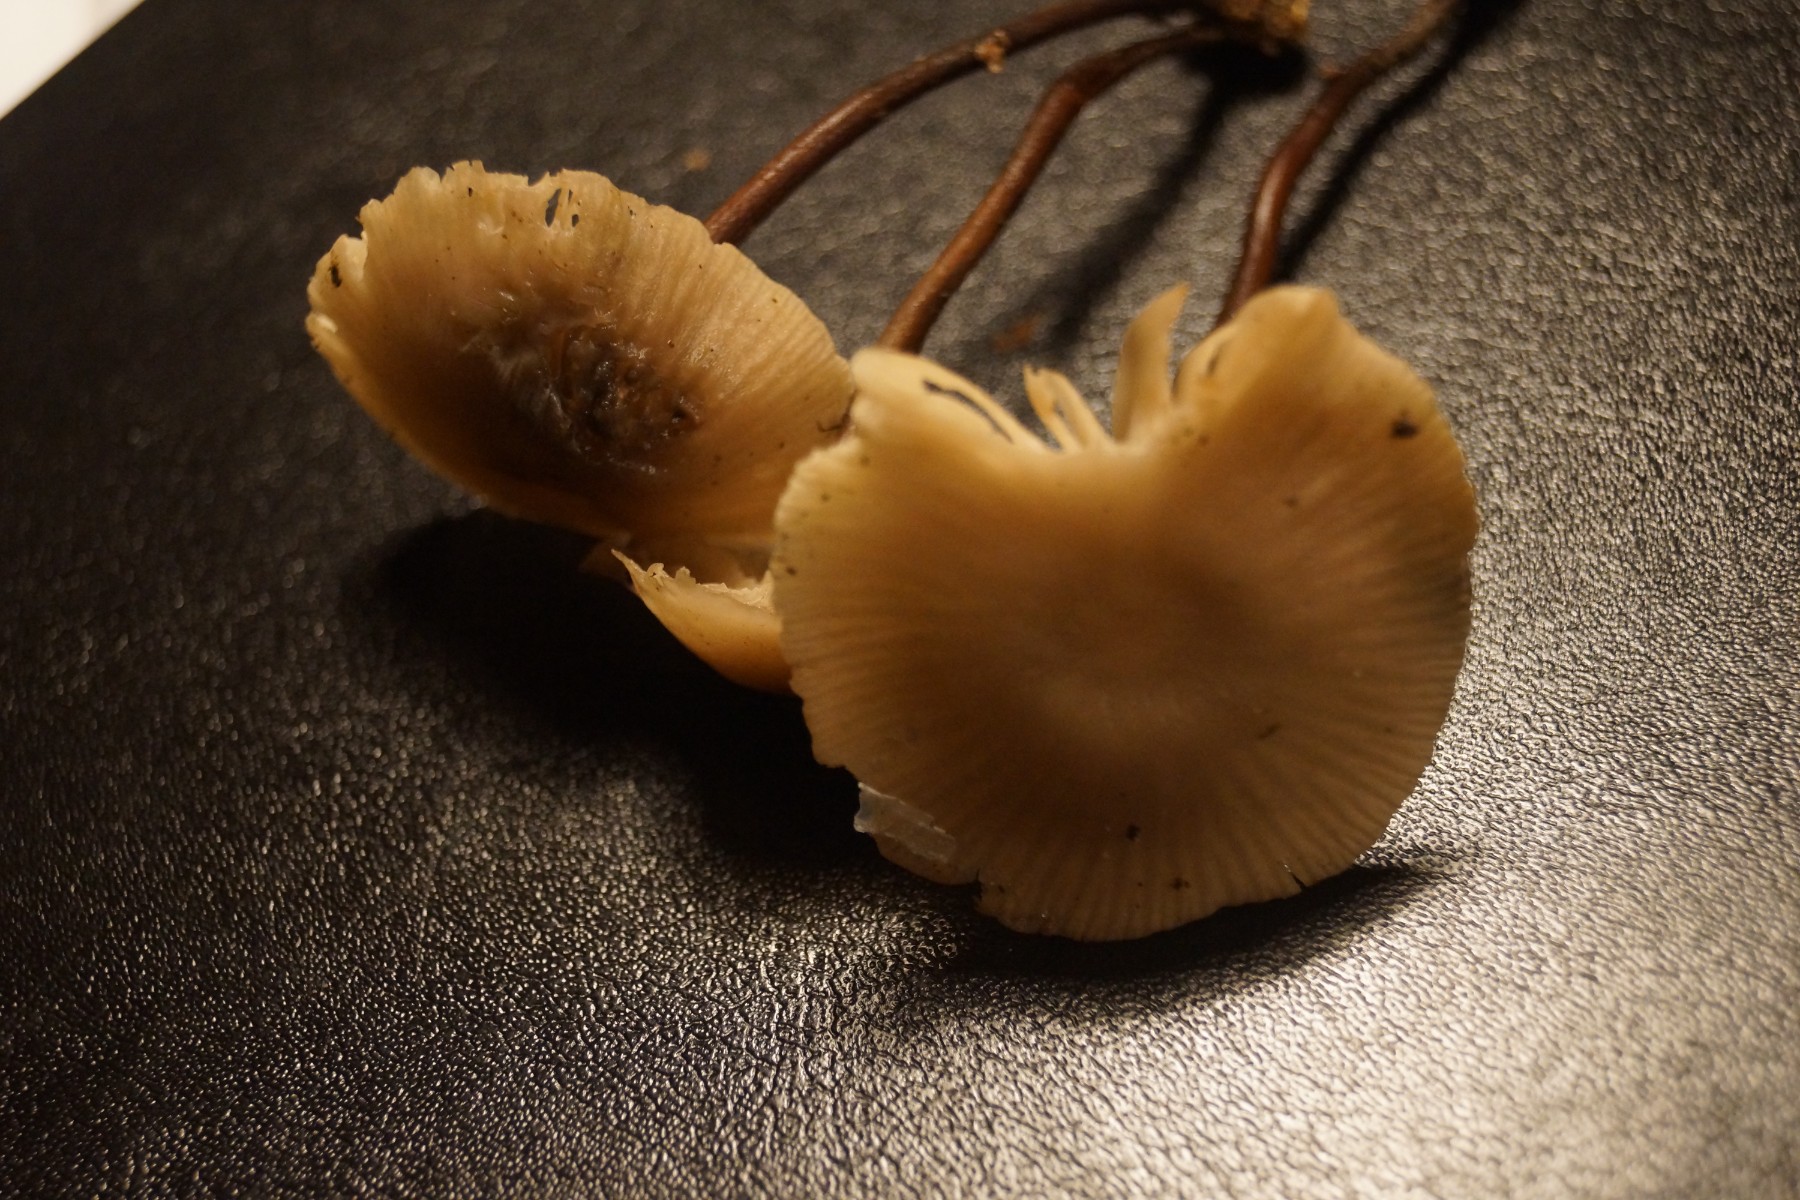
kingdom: Fungi
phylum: Basidiomycota
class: Agaricomycetes
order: Agaricales
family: Omphalotaceae
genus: Mycetinis
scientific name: Mycetinis querceus
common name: ege-løghat
